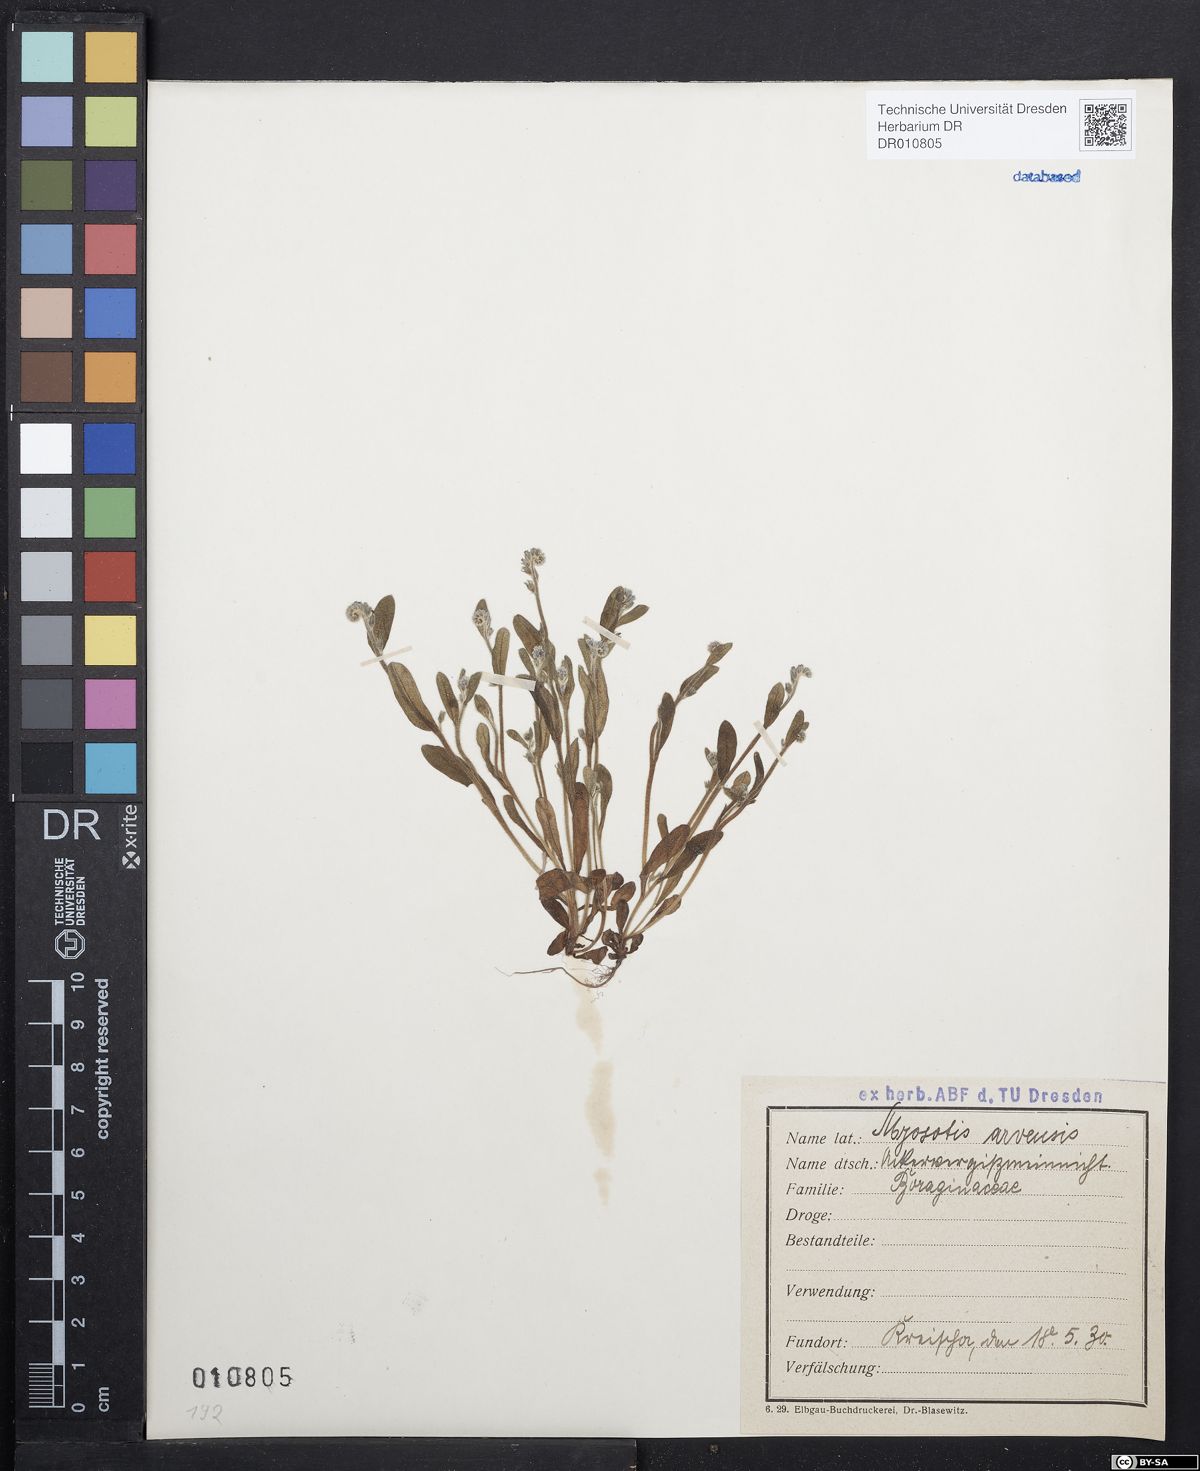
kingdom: Plantae
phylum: Tracheophyta
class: Magnoliopsida
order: Boraginales
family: Boraginaceae
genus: Myosotis
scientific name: Myosotis arvensis
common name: Field forget-me-not
